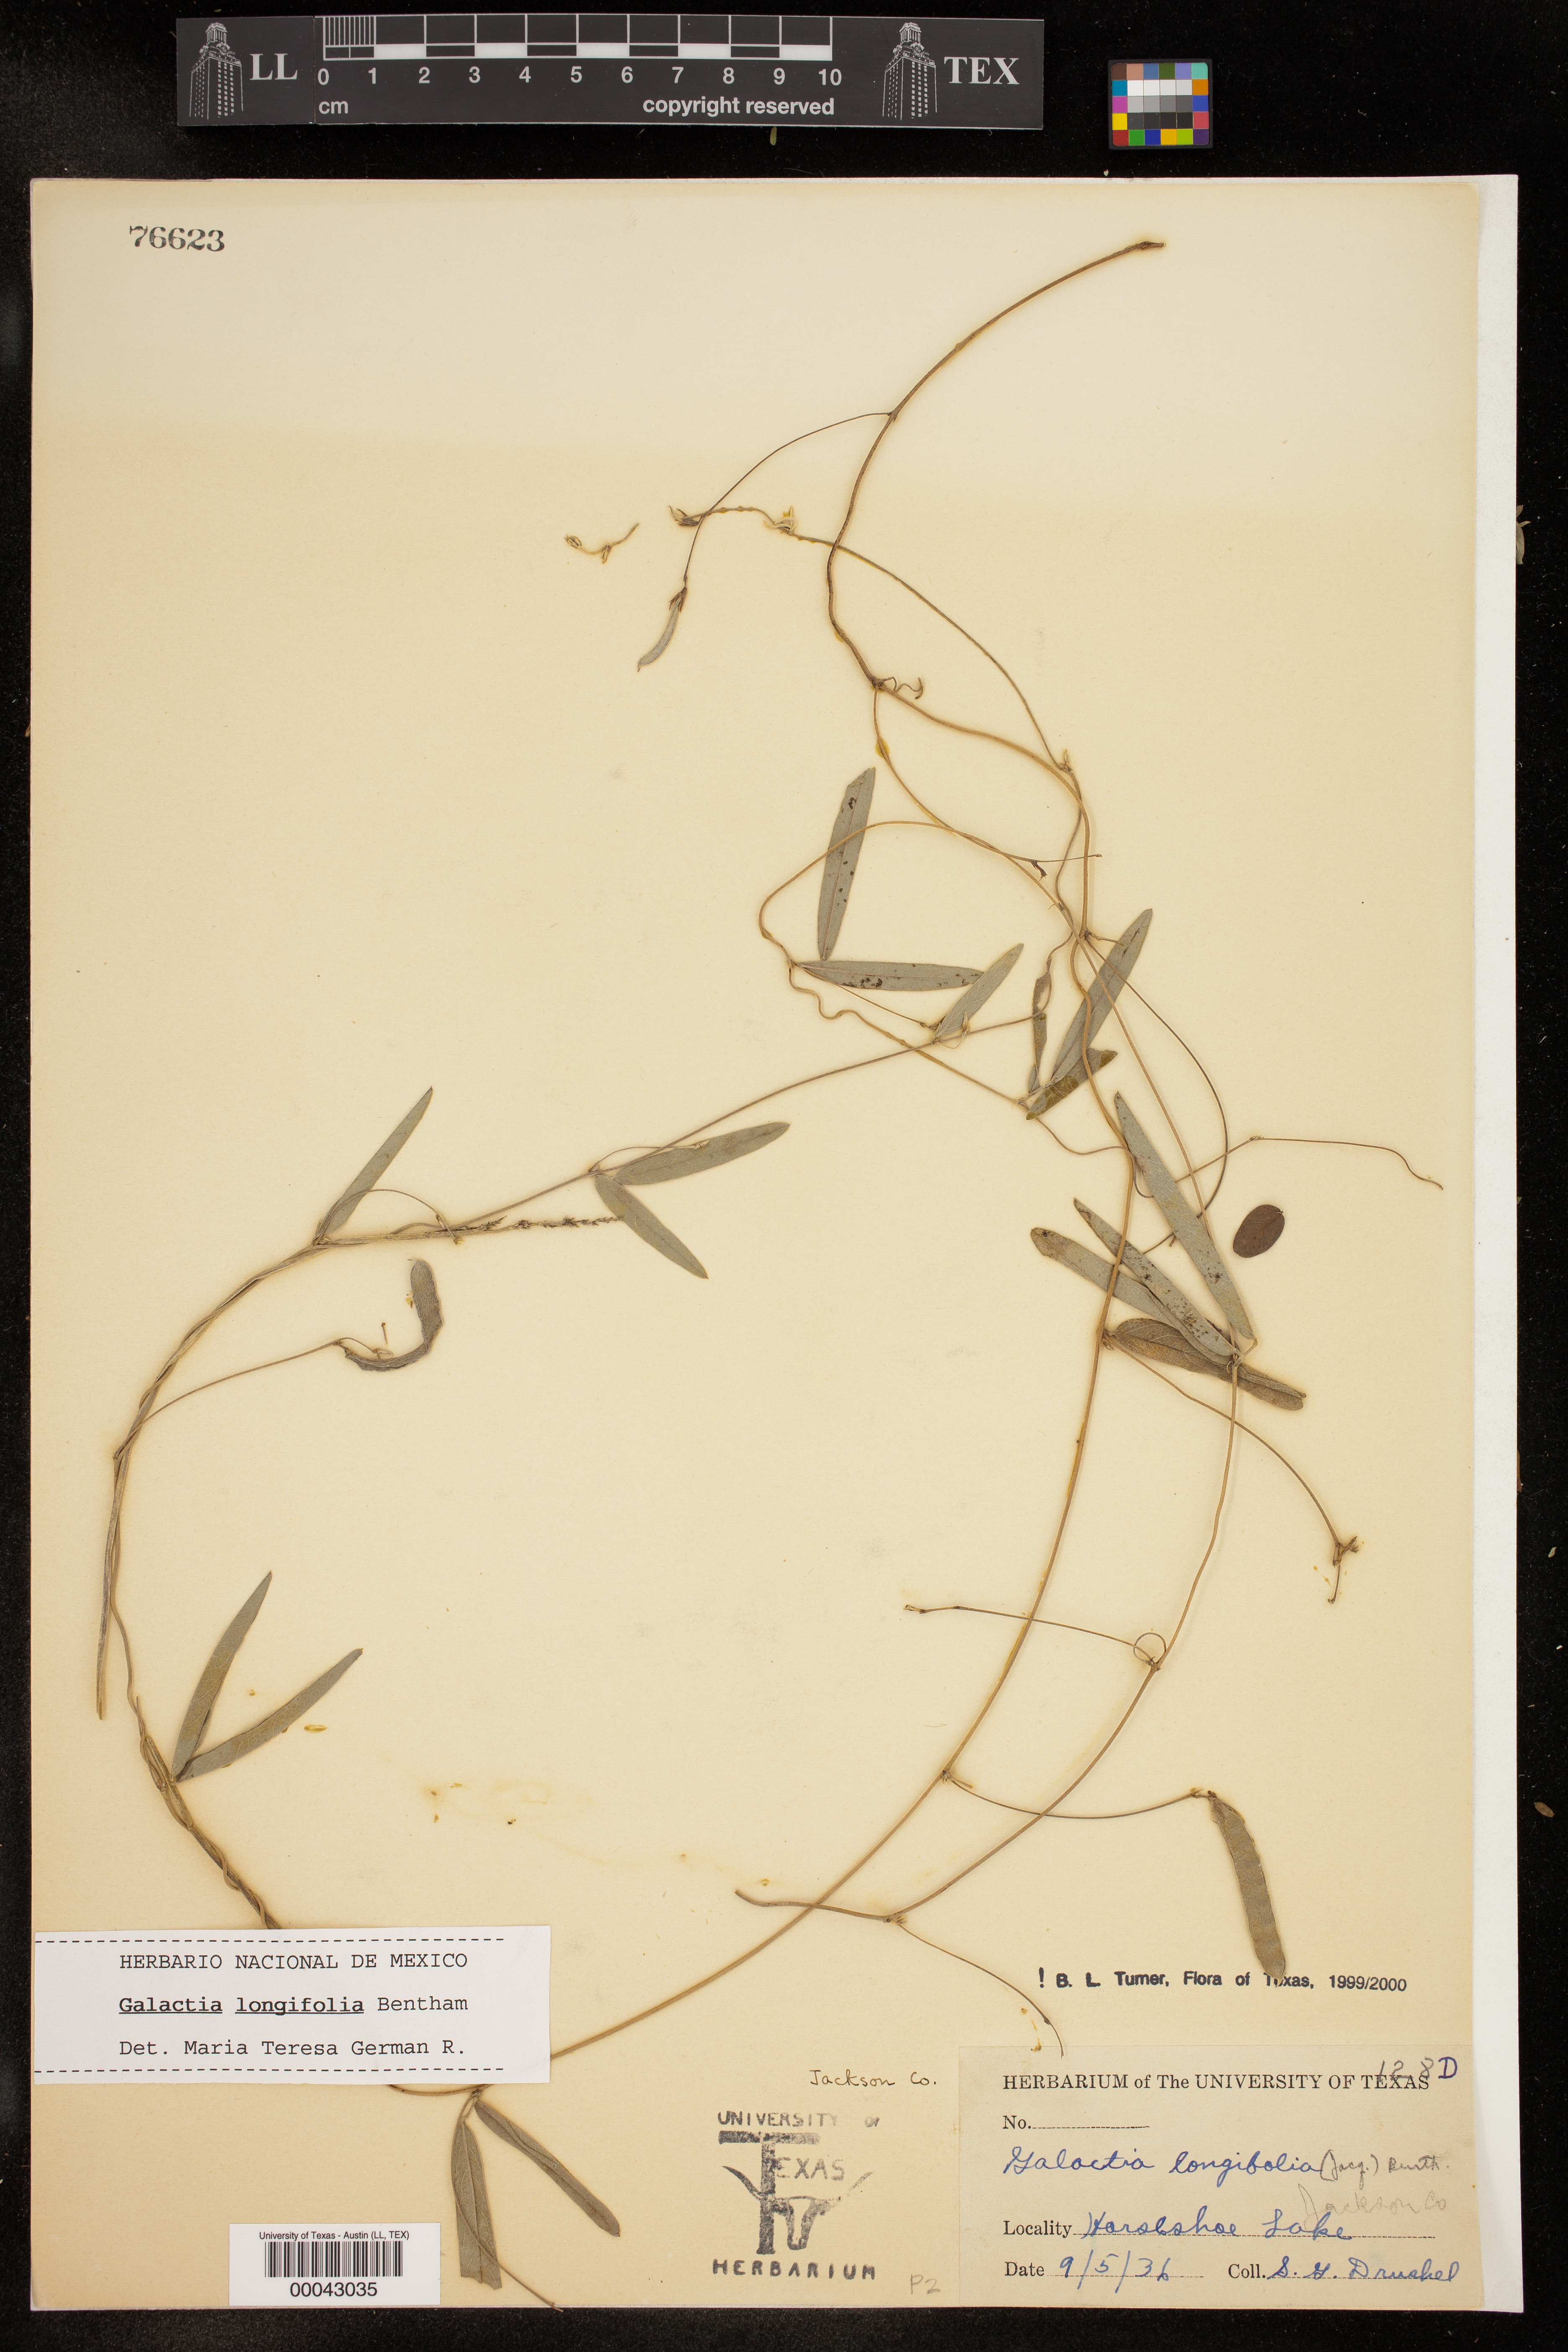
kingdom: Plantae
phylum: Tracheophyta
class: Magnoliopsida
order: Fabales
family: Fabaceae
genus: Galactia
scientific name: Galactia longifolia
